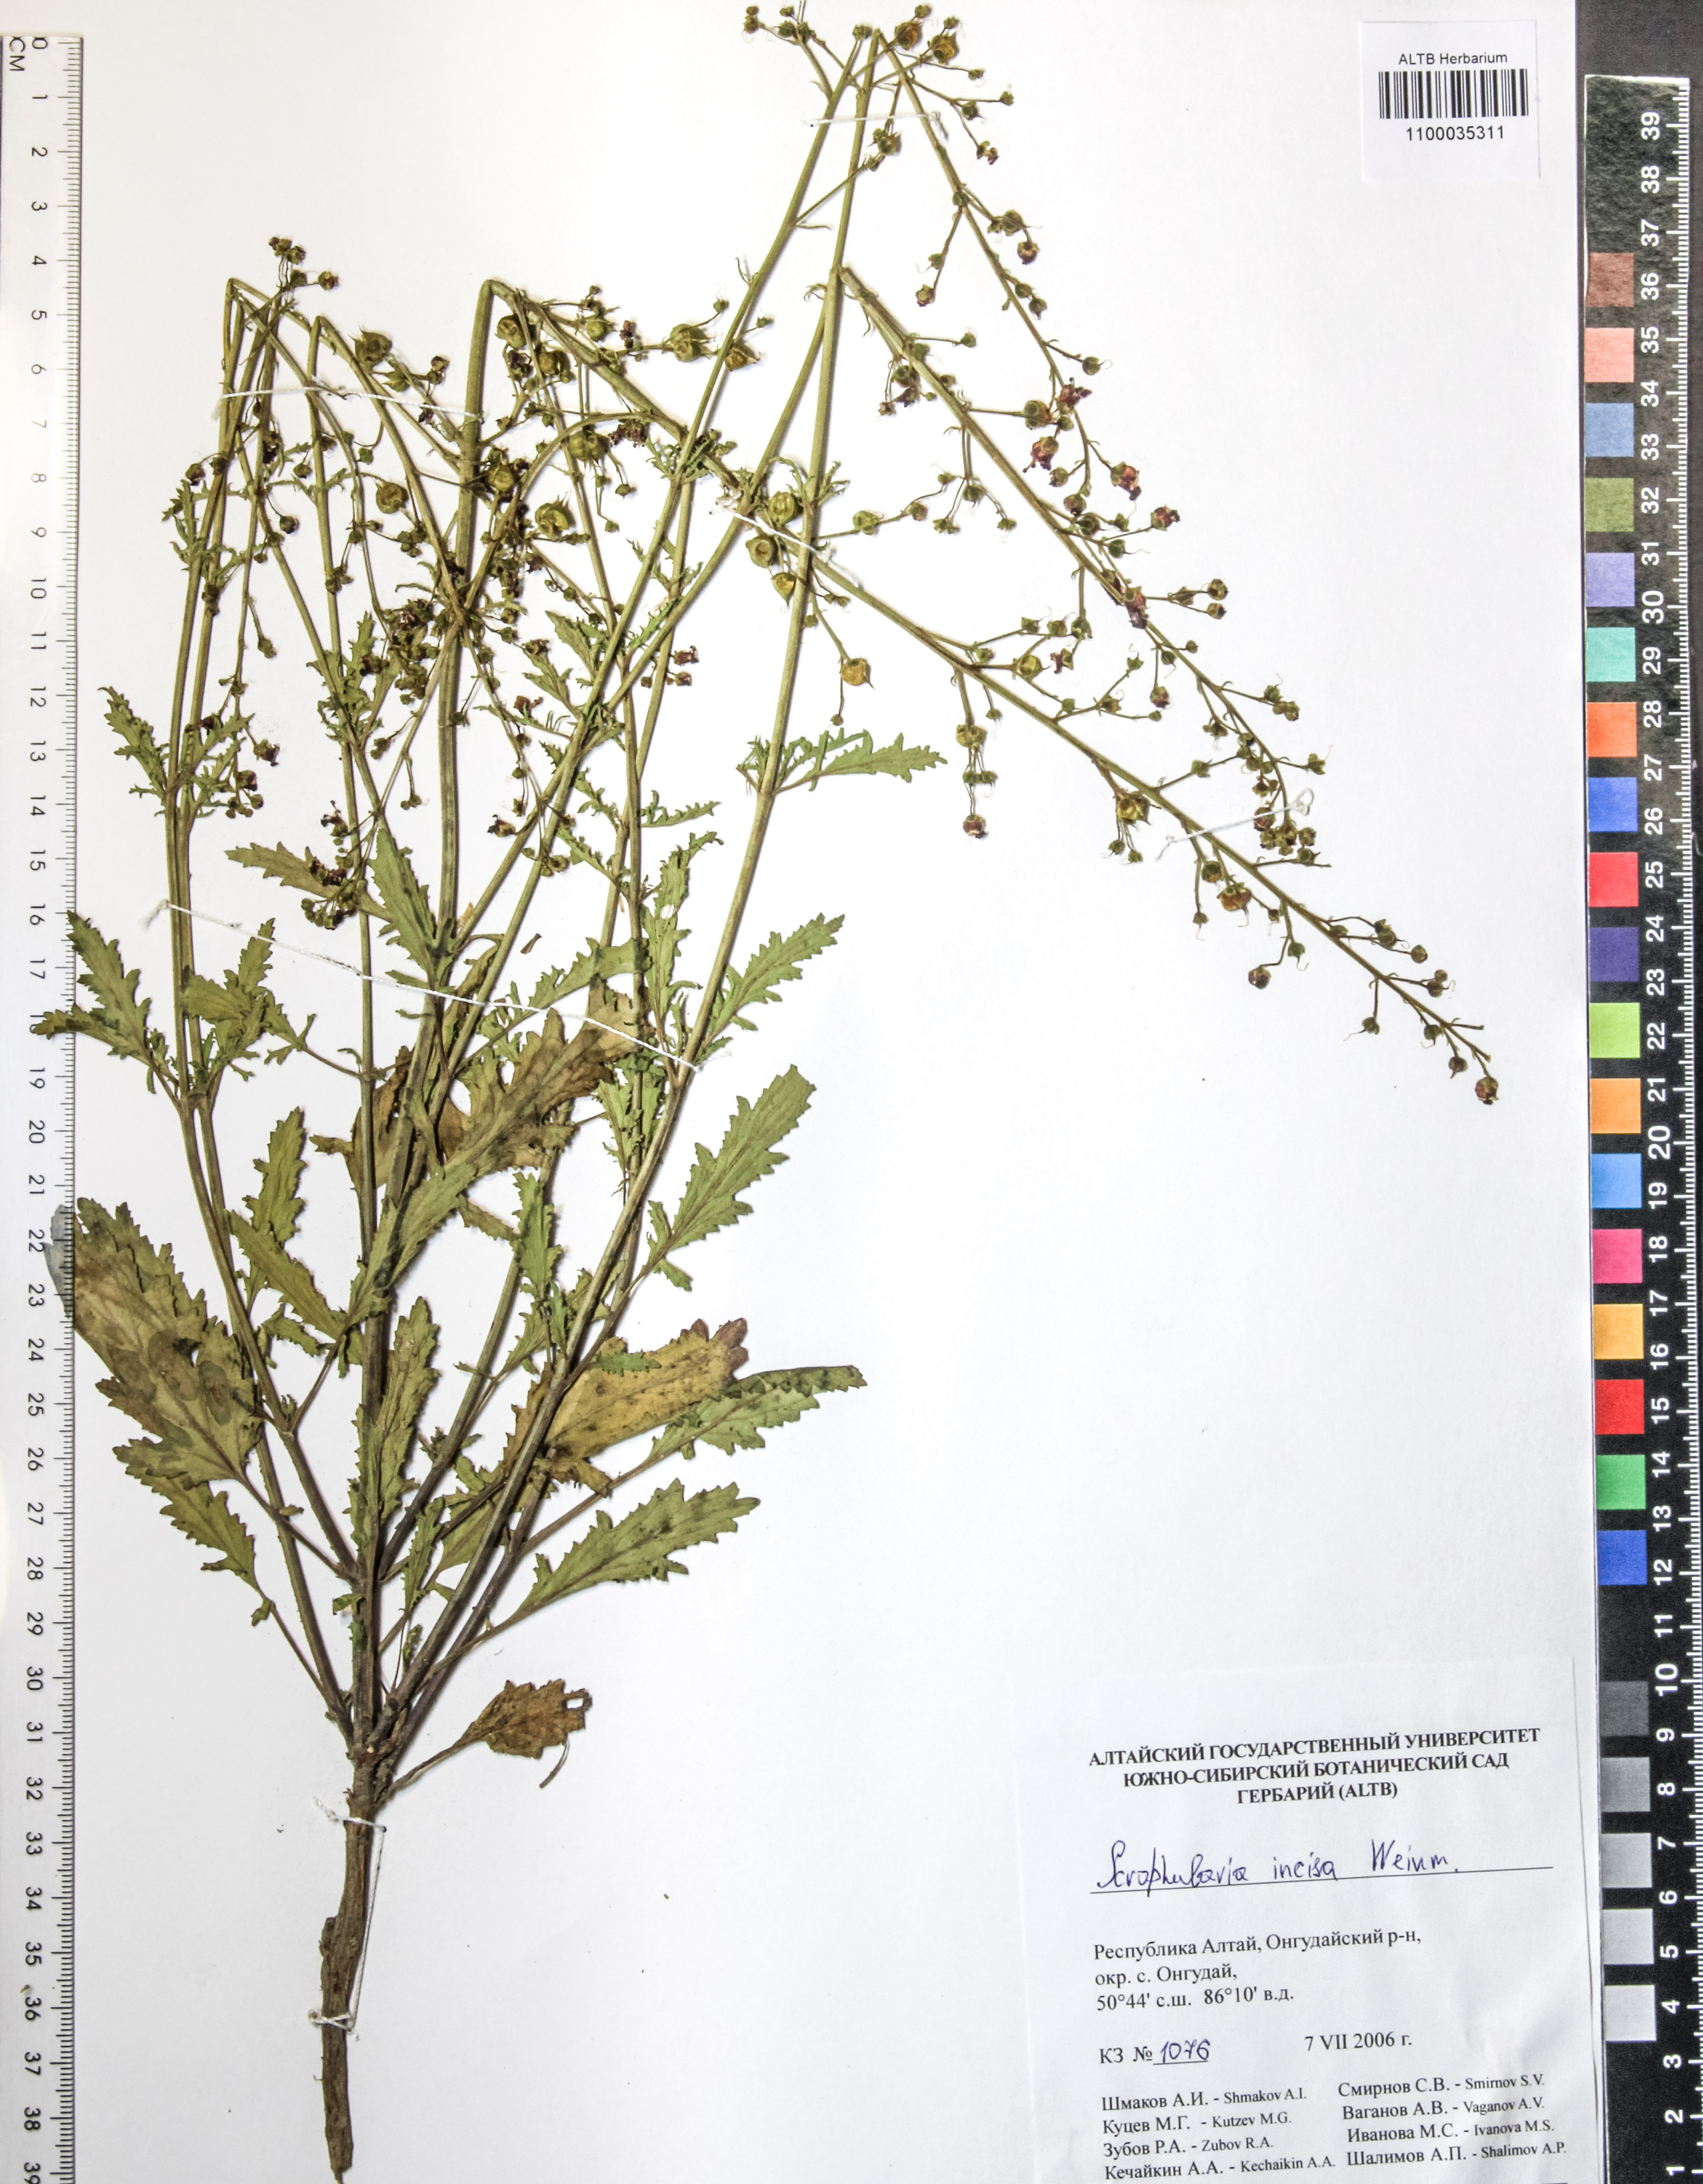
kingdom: Plantae
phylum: Tracheophyta
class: Magnoliopsida
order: Lamiales
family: Scrophulariaceae
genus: Scrophularia
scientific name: Scrophularia incisa
